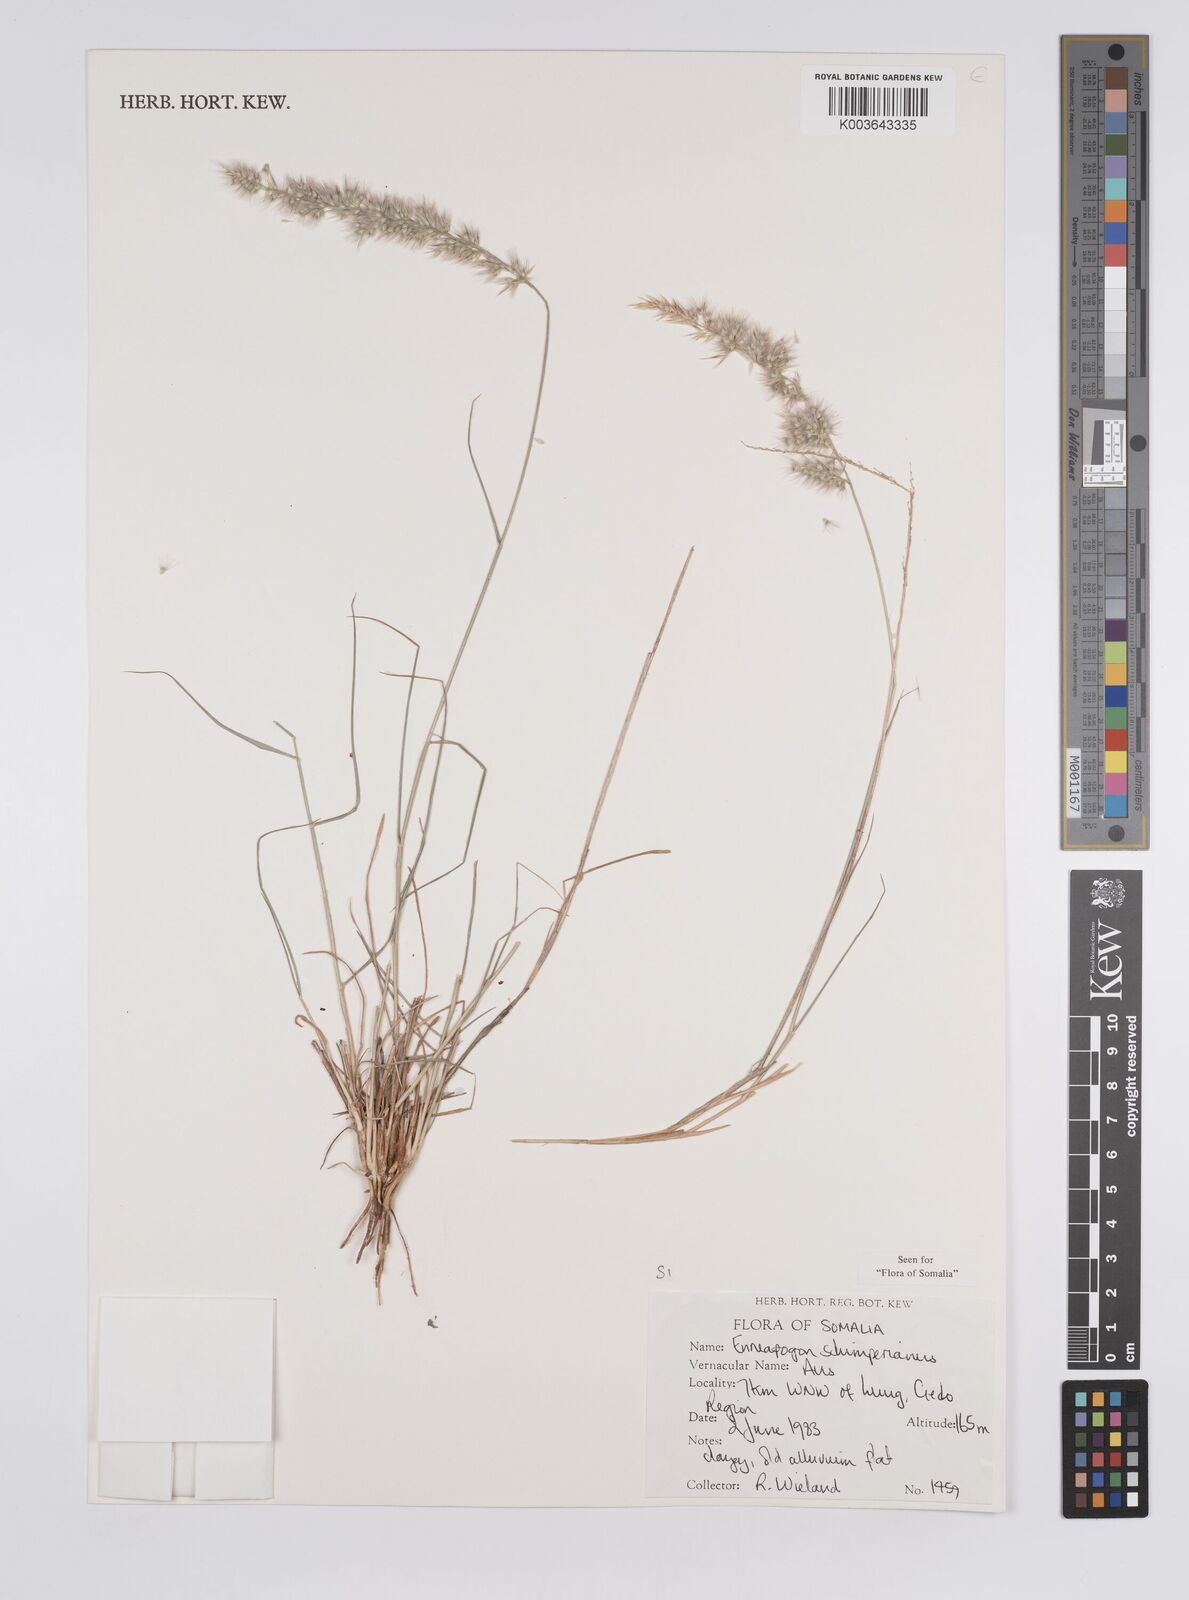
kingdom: Plantae
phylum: Tracheophyta
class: Liliopsida
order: Poales
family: Poaceae
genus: Enneapogon
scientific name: Enneapogon persicus
